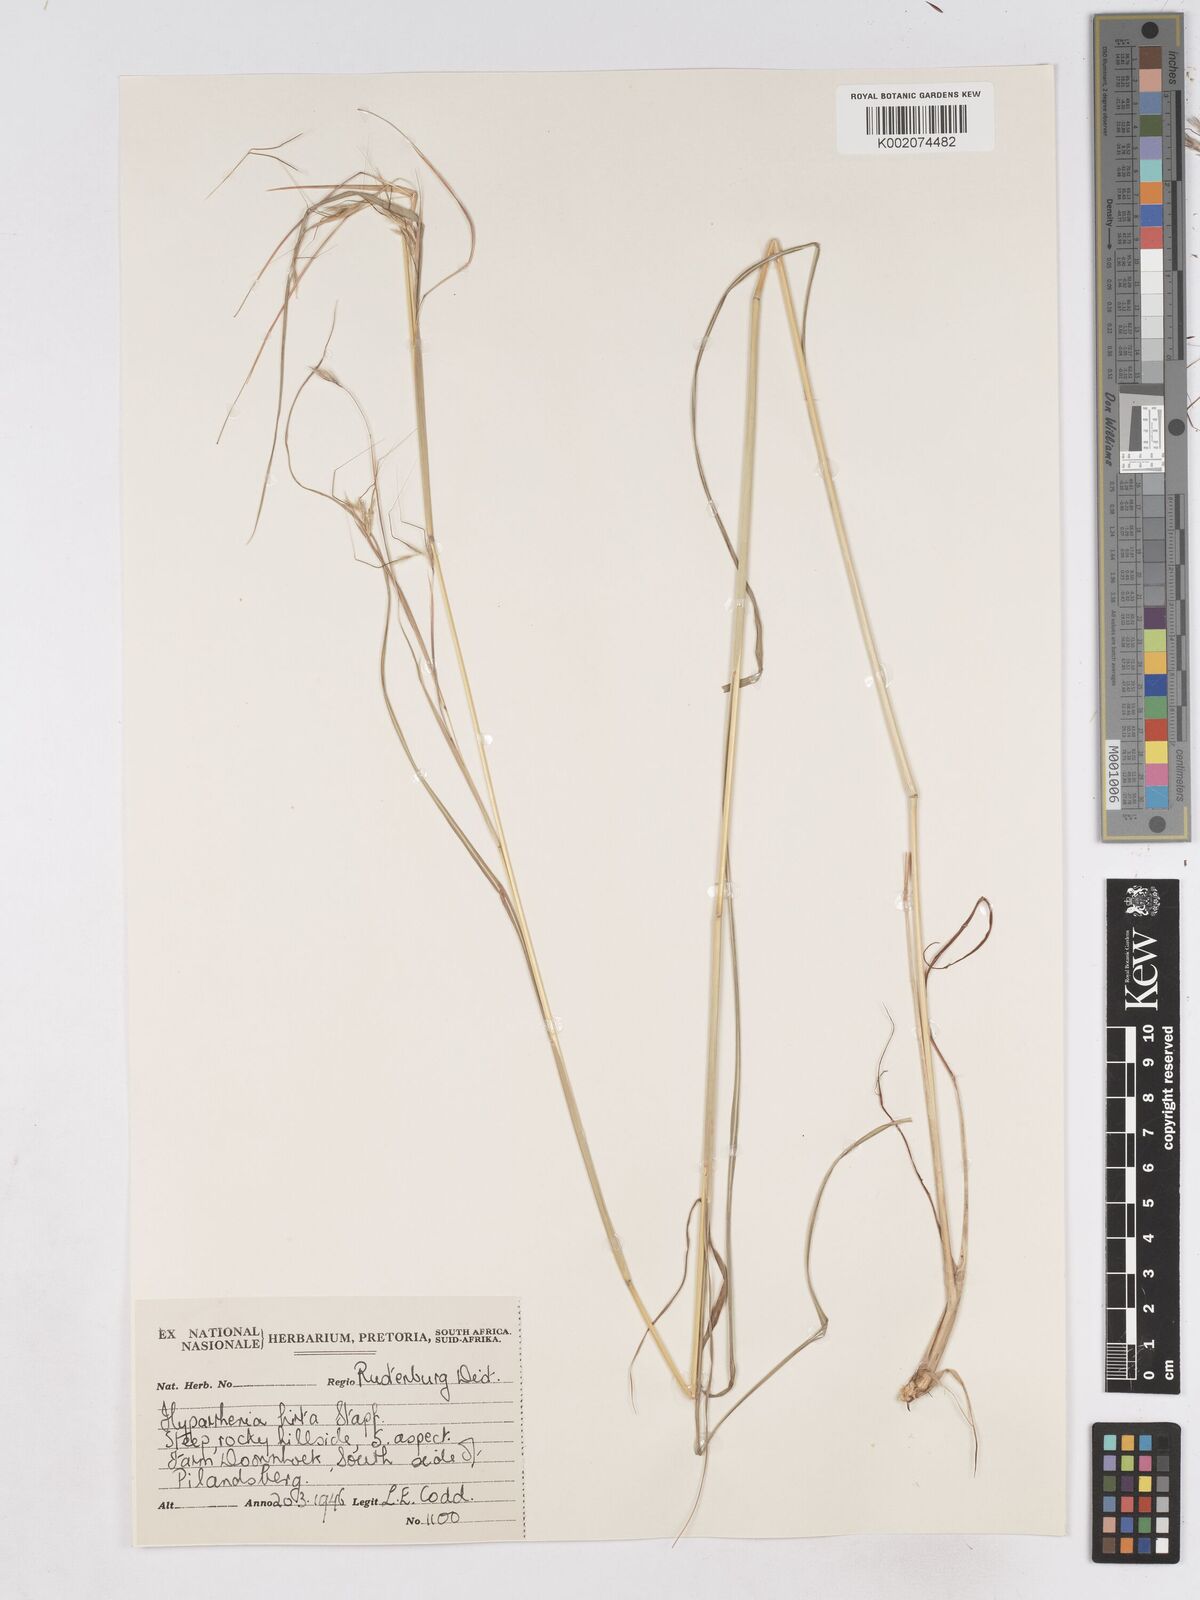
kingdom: Plantae
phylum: Tracheophyta
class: Liliopsida
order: Poales
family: Poaceae
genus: Hyparrhenia
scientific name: Hyparrhenia hirta
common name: Thatching grass
